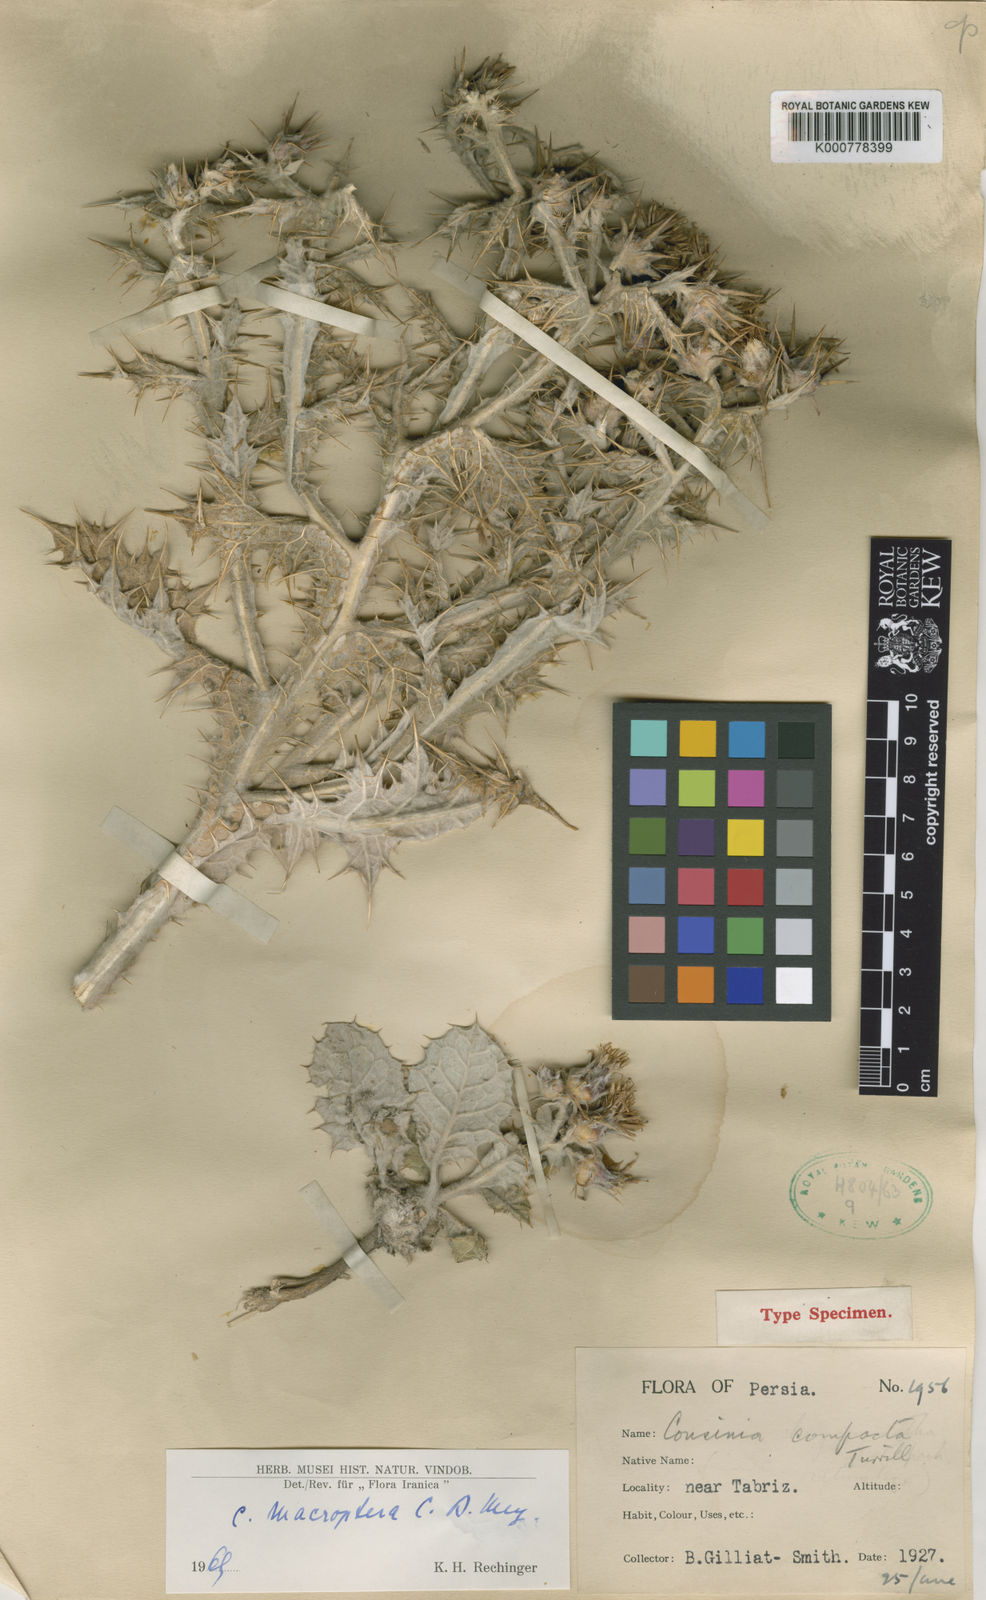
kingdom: Plantae
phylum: Tracheophyta
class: Magnoliopsida
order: Asterales
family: Asteraceae
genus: Cousinia
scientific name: Cousinia
